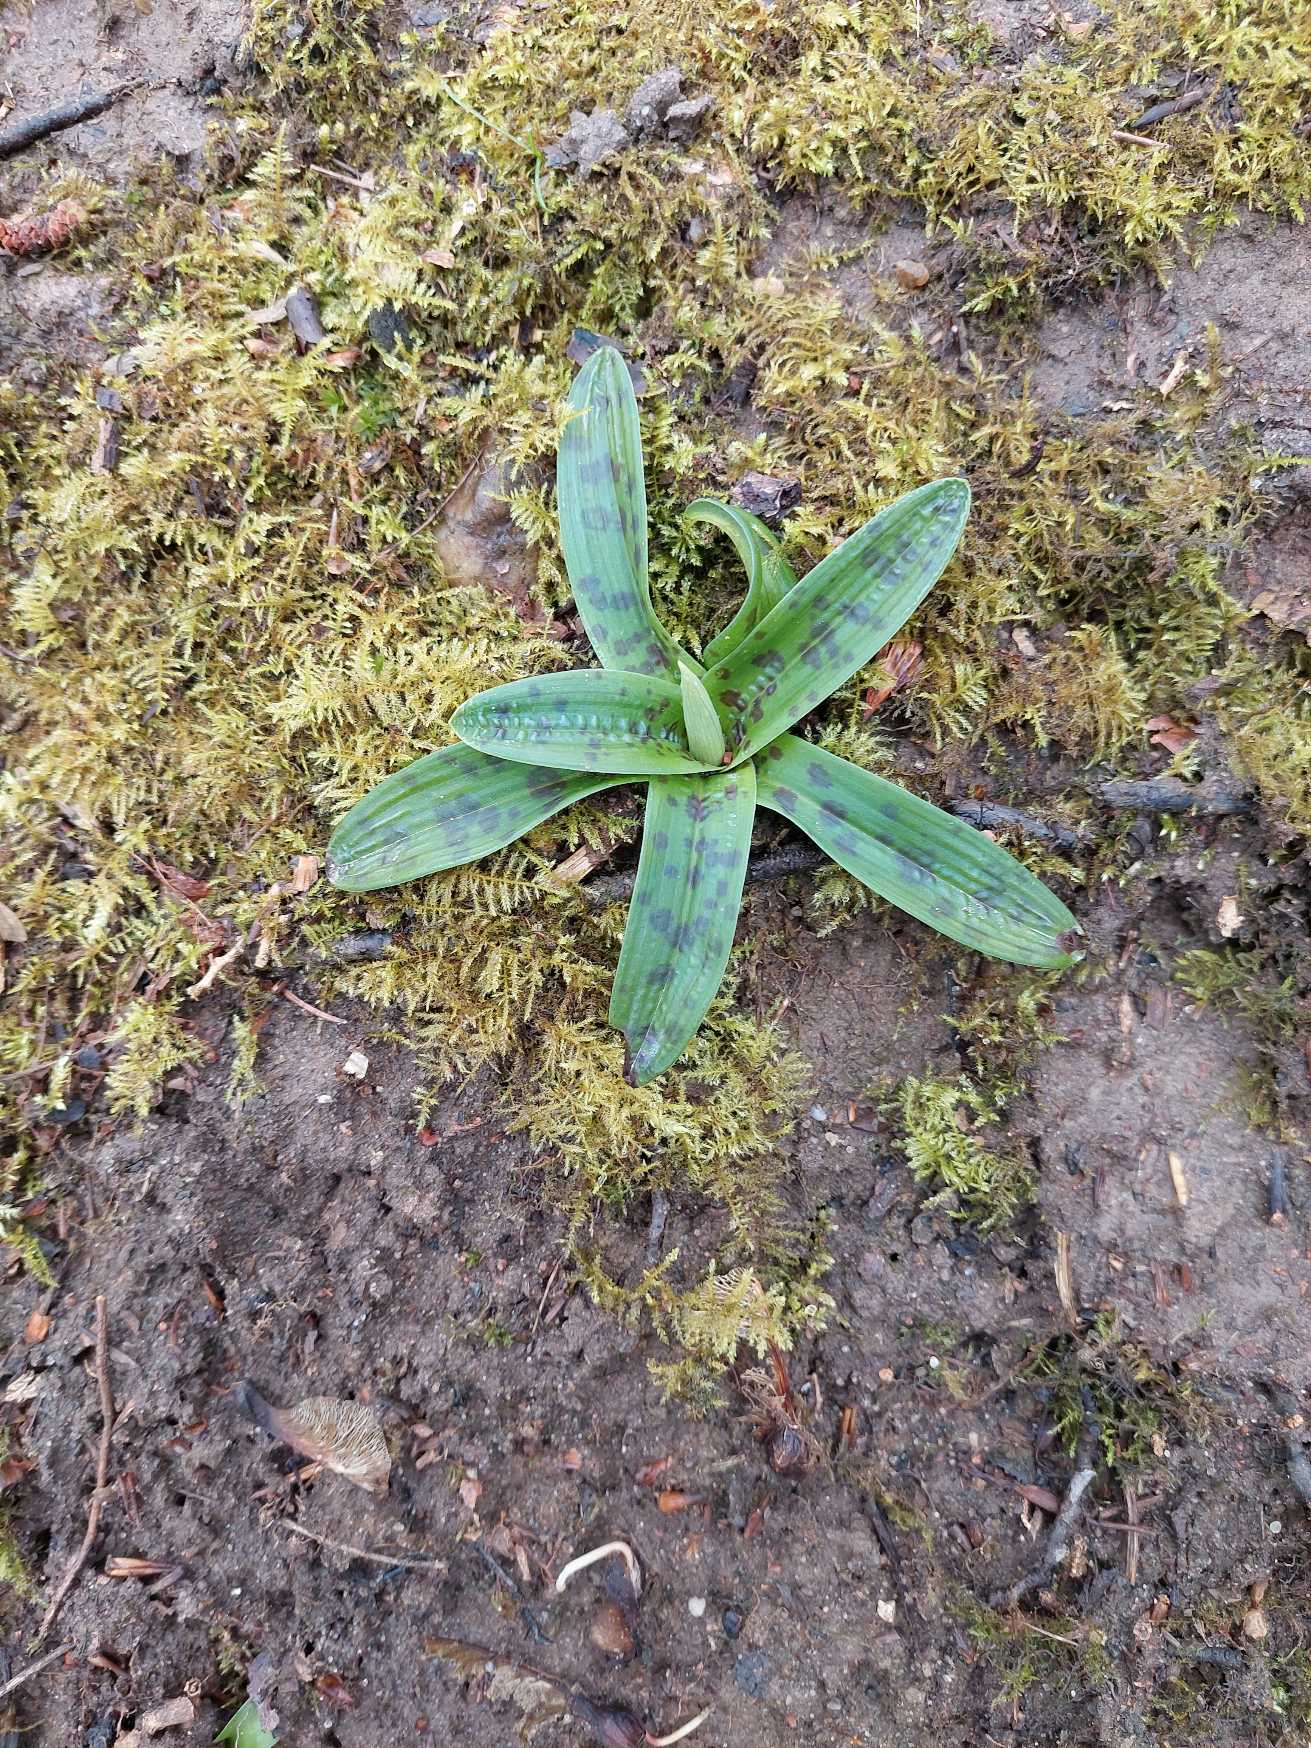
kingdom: Plantae
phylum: Tracheophyta
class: Liliopsida
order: Asparagales
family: Orchidaceae
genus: Orchis
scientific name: Orchis mascula
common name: Tyndakset gøgeurt
